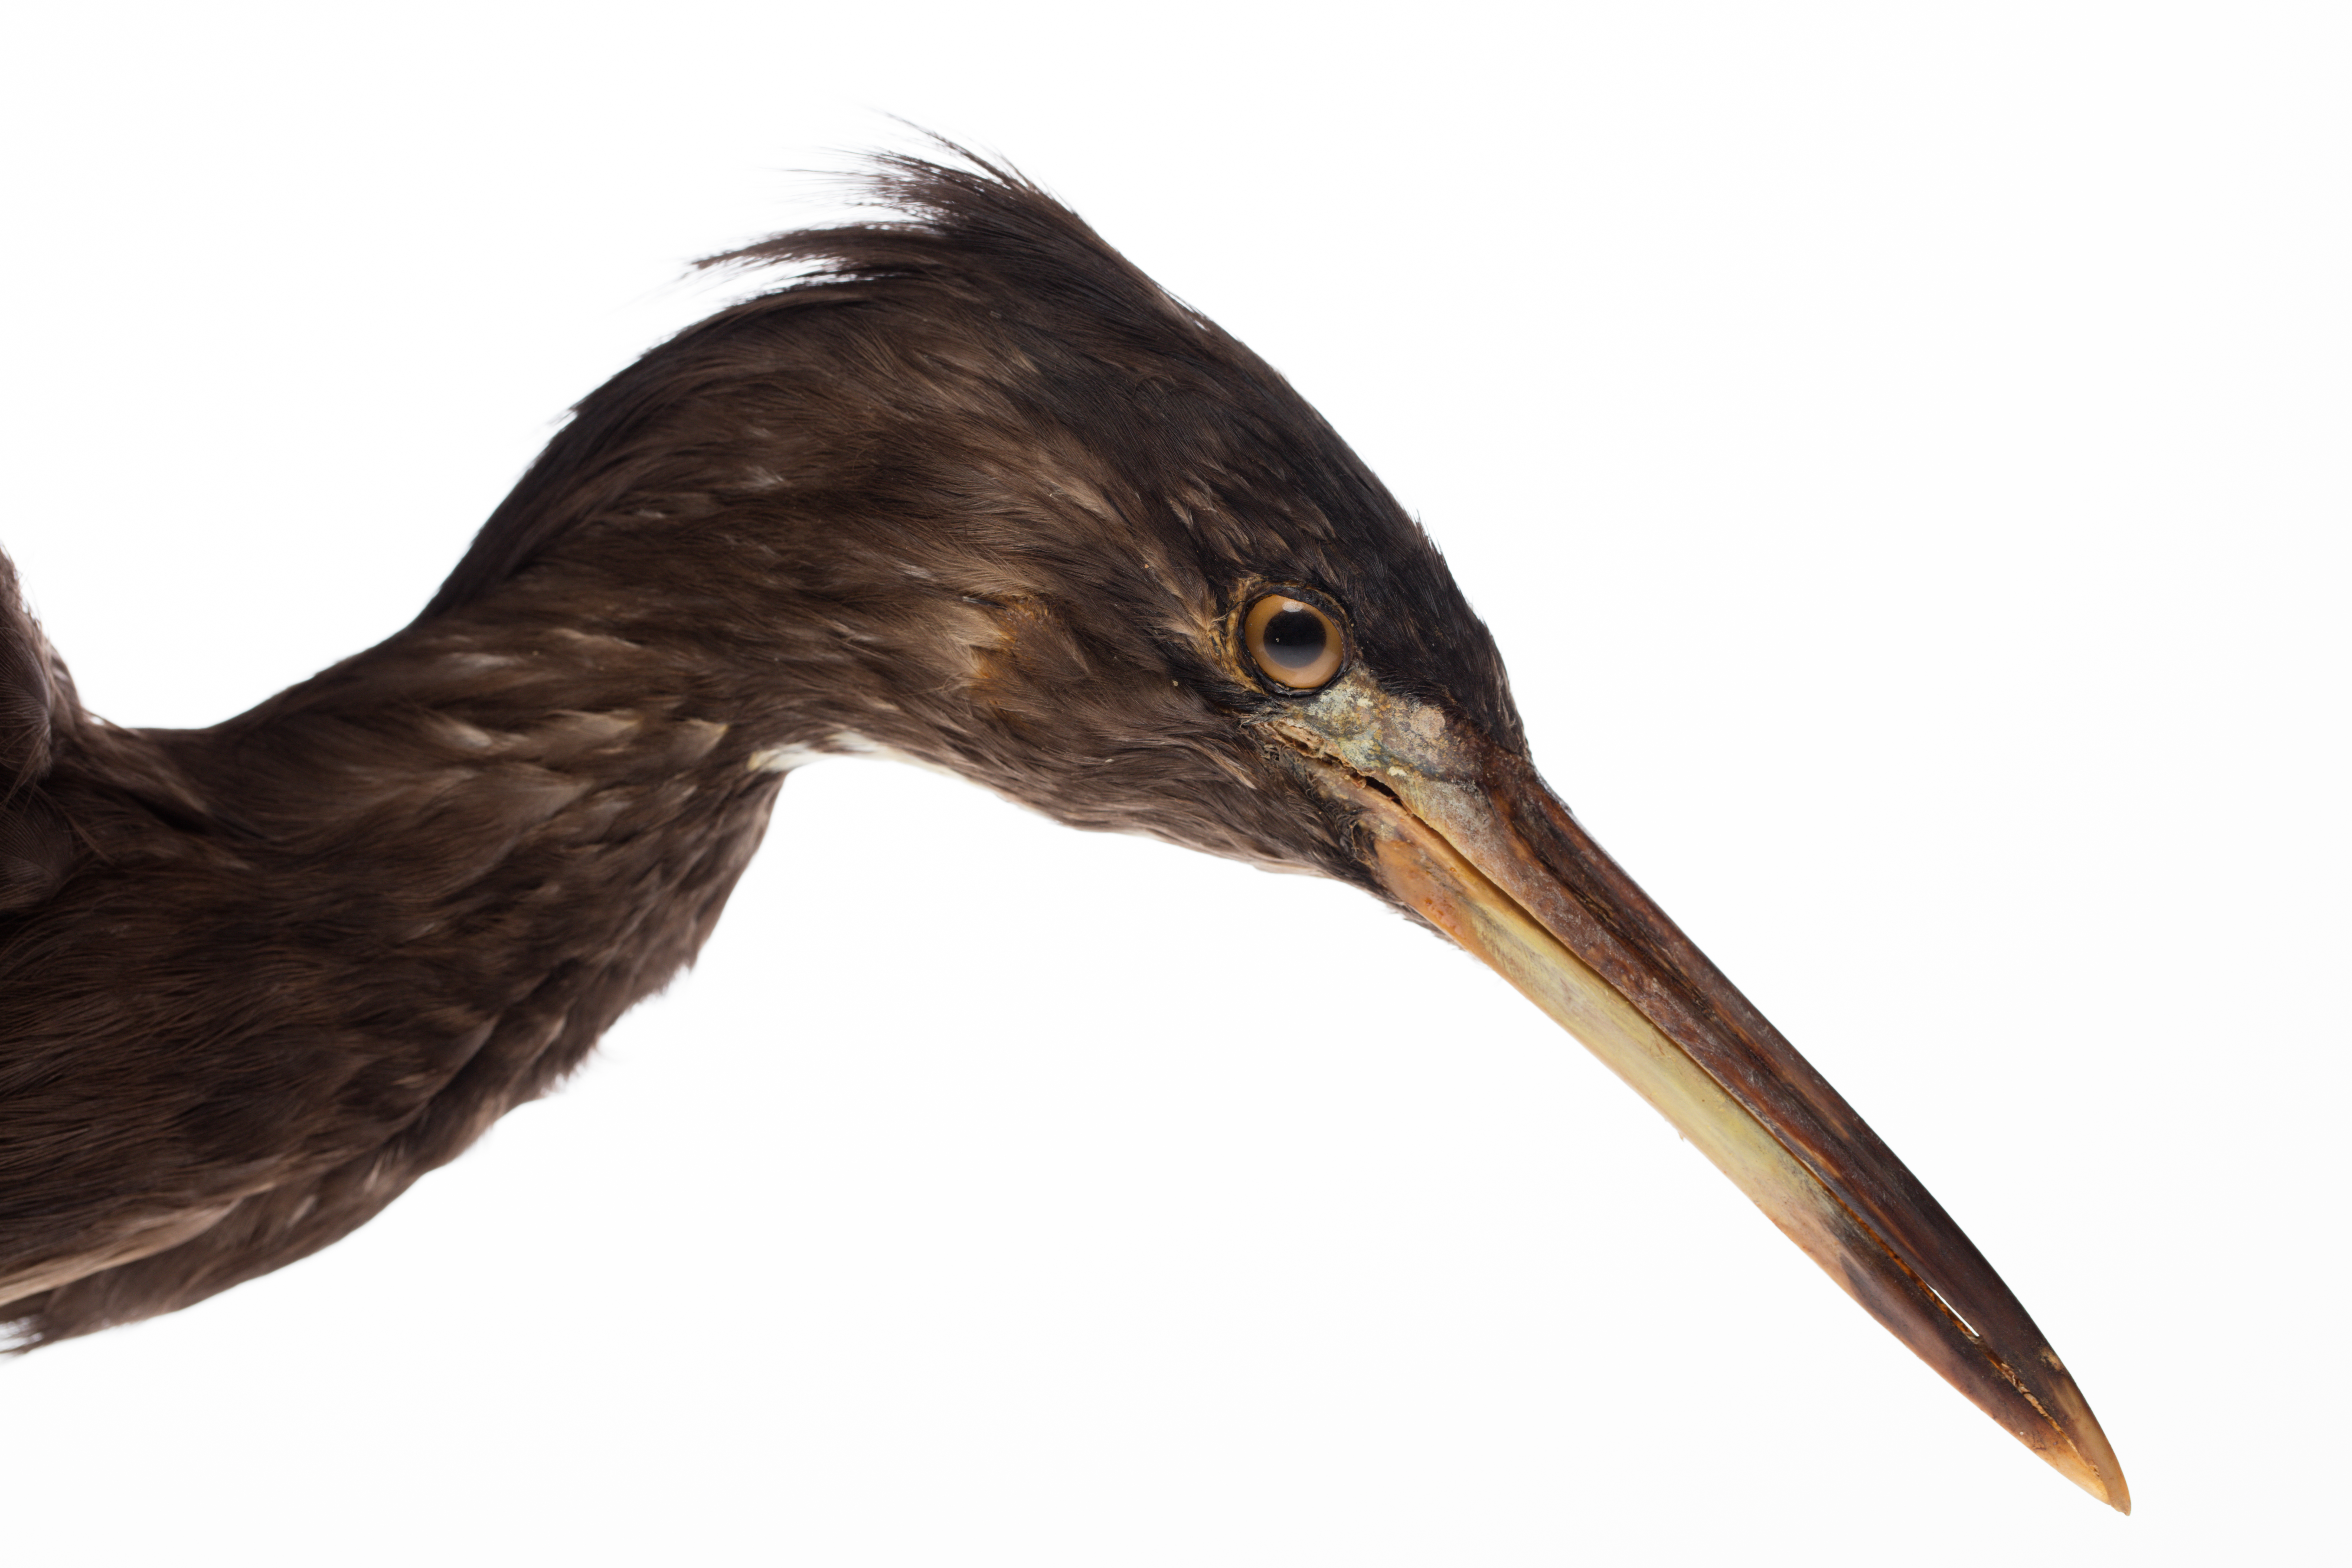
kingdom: Animalia
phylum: Chordata
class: Aves
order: Pelecaniformes
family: Ardeidae
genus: Egretta
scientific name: Egretta sacra
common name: Pacific reef heron
